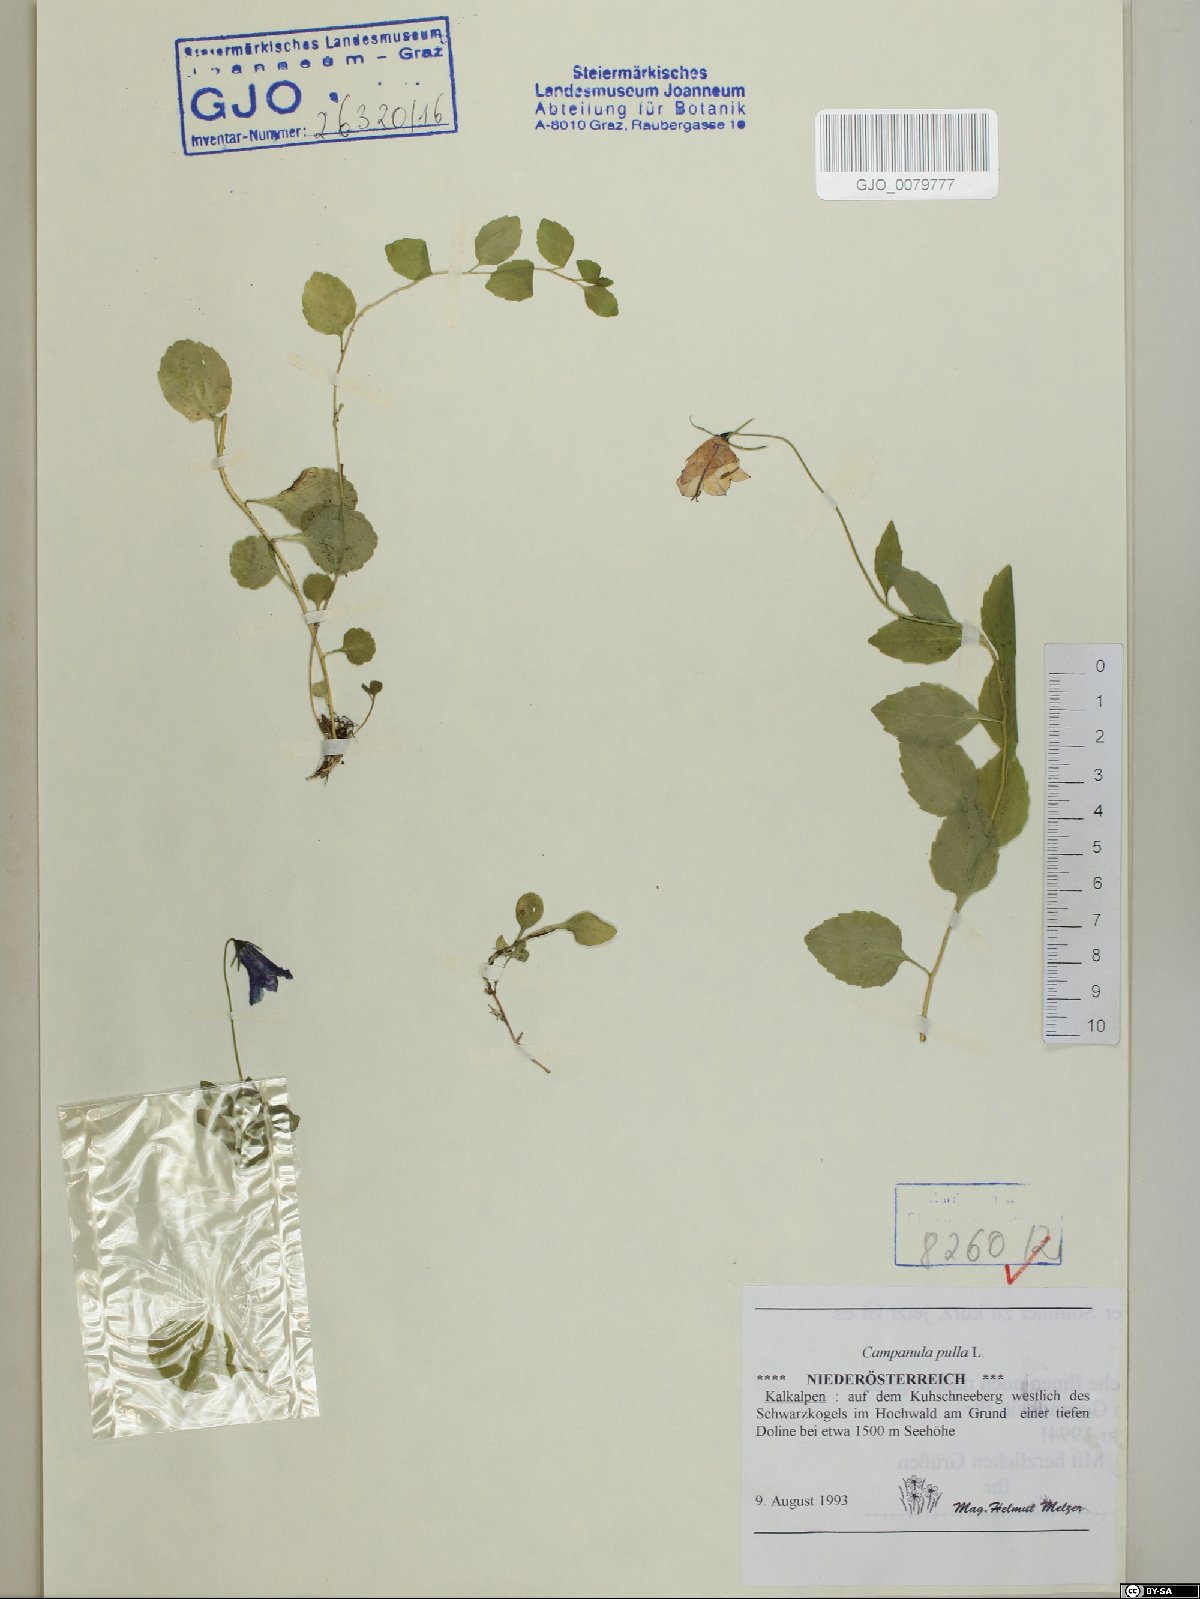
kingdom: Plantae
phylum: Tracheophyta
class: Magnoliopsida
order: Asterales
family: Campanulaceae
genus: Campanula
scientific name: Campanula pulla
